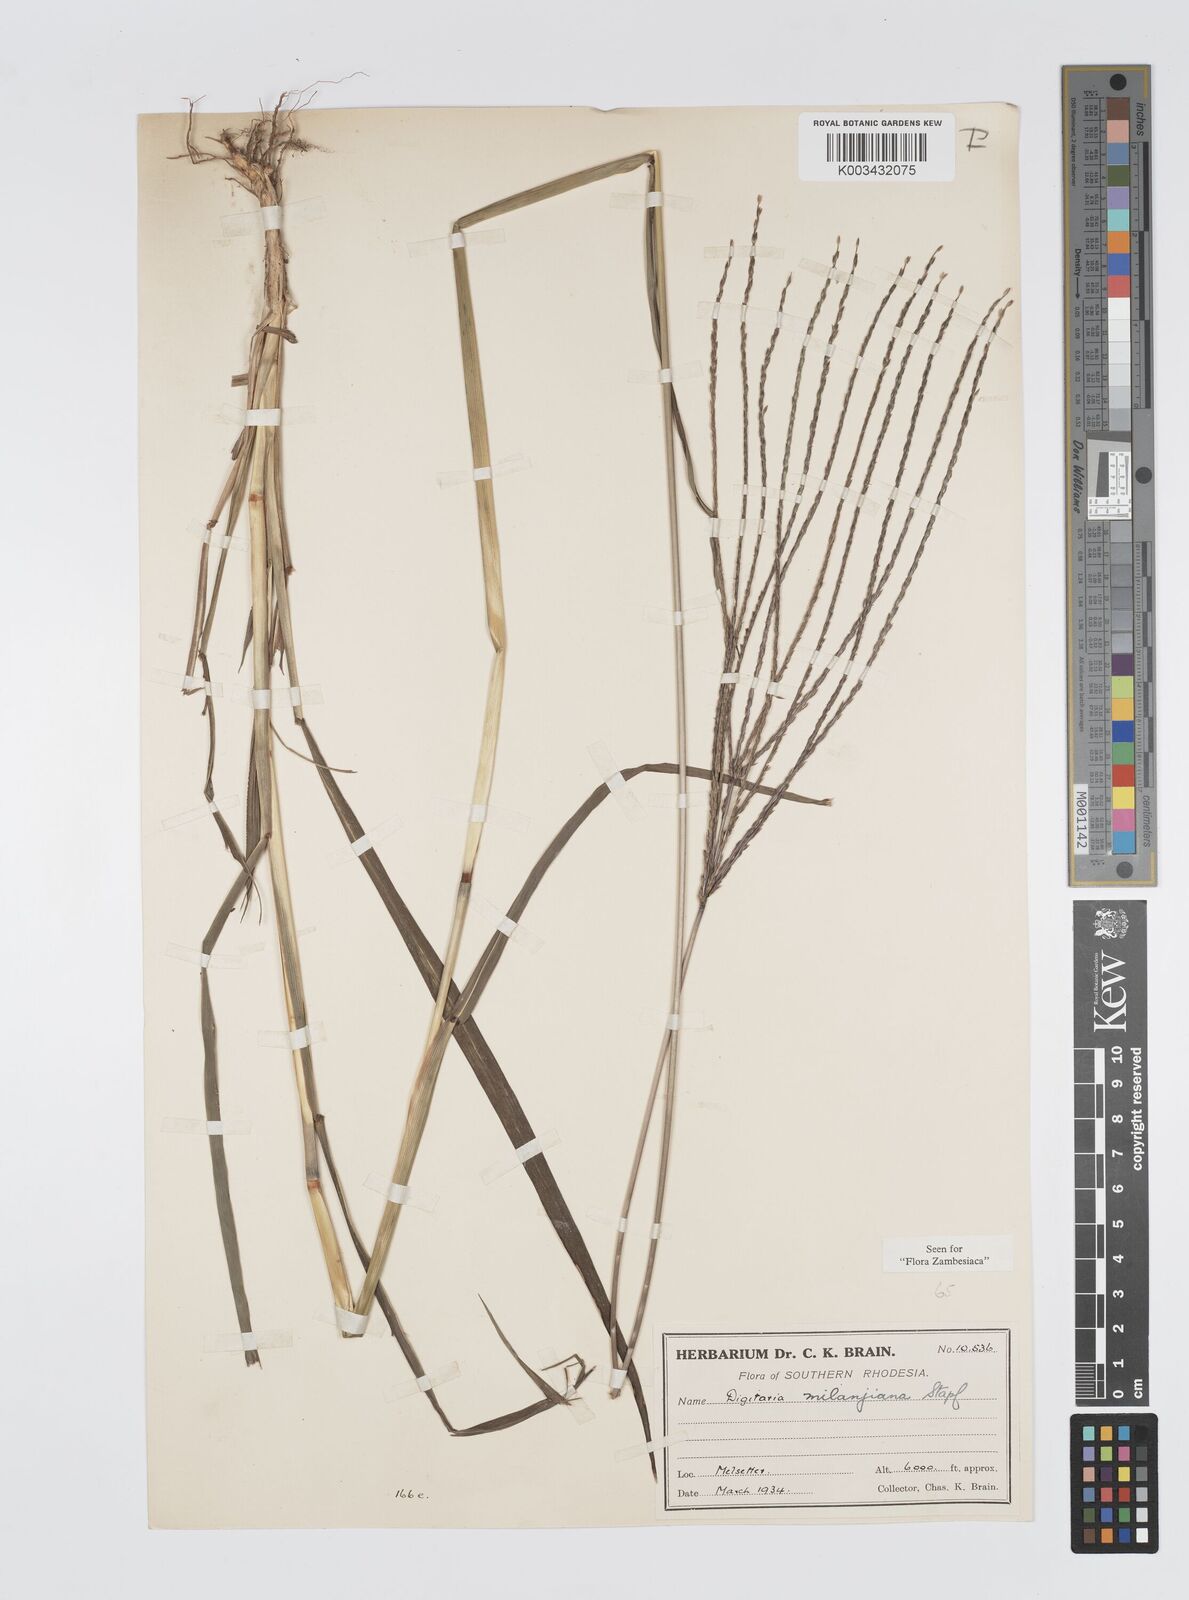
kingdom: Plantae
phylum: Tracheophyta
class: Liliopsida
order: Poales
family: Poaceae
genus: Digitaria
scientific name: Digitaria milanjiana
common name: Madagascar crabgrass
